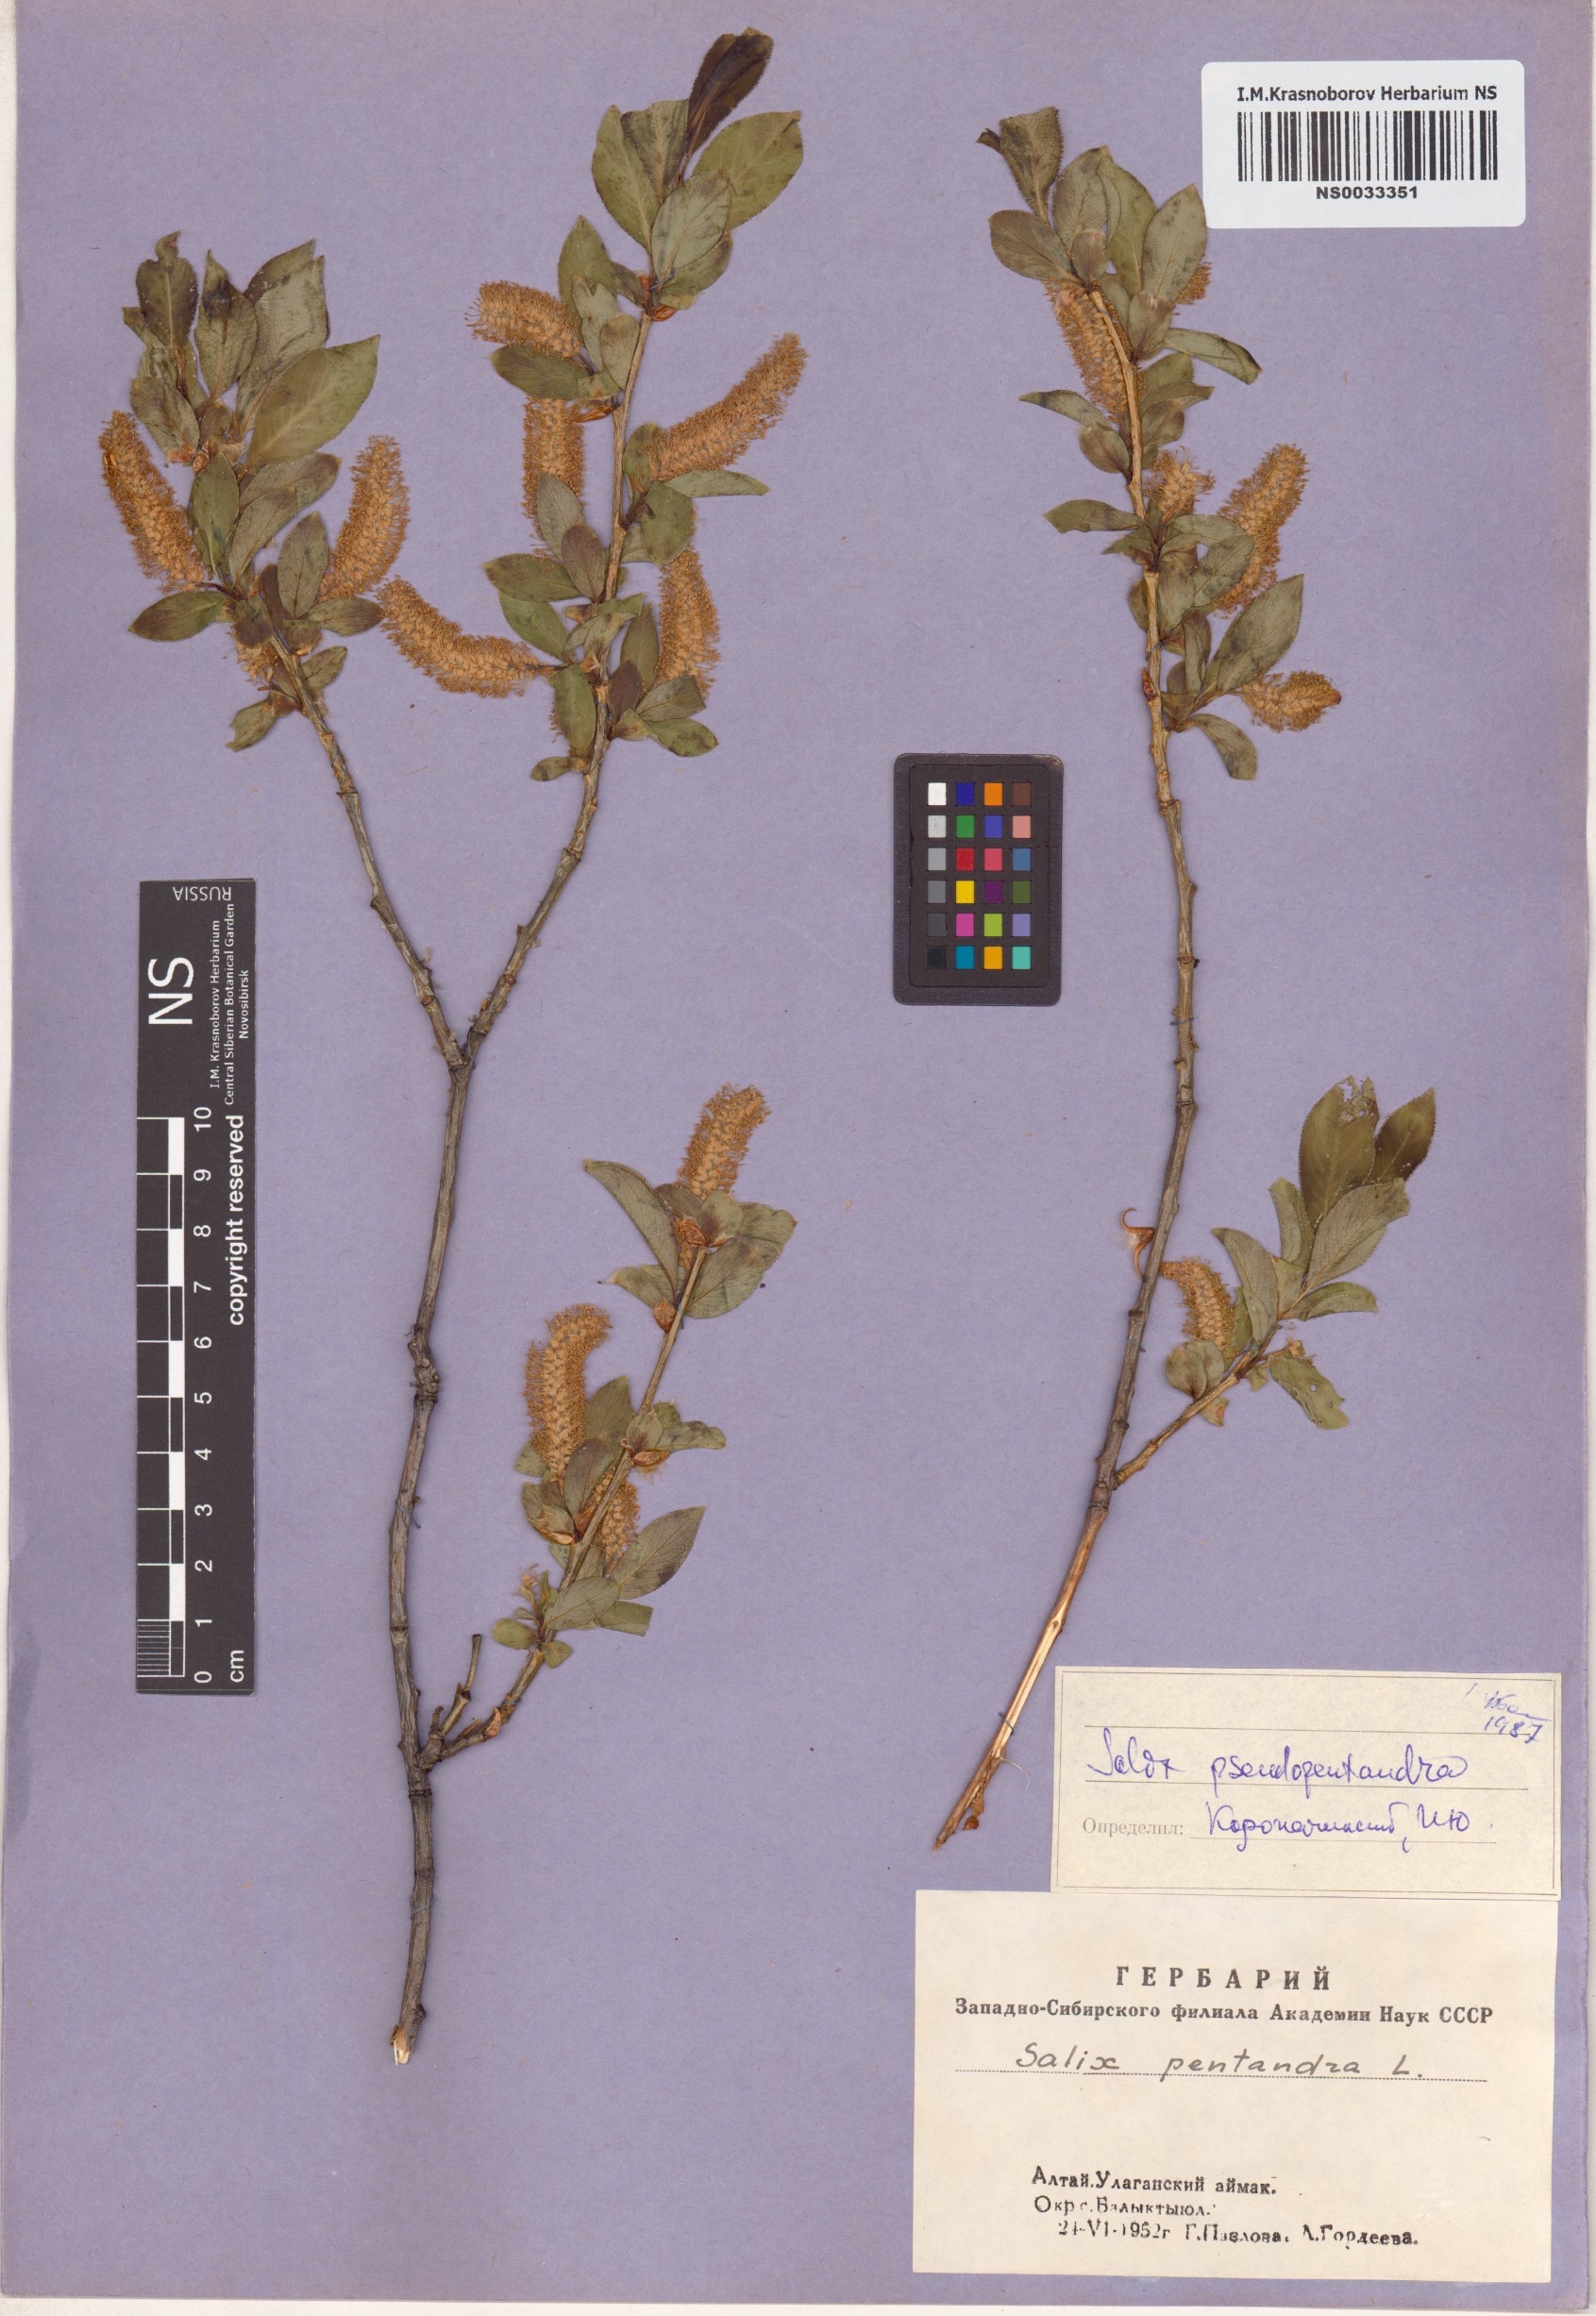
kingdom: Plantae
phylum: Tracheophyta
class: Magnoliopsida
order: Malpighiales
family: Salicaceae
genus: Salix
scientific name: Salix pseudopentandra
